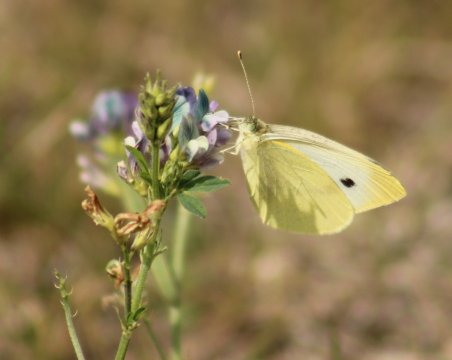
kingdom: Animalia
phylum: Arthropoda
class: Insecta
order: Lepidoptera
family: Pieridae
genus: Pieris
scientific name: Pieris rapae
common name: Cabbage White
